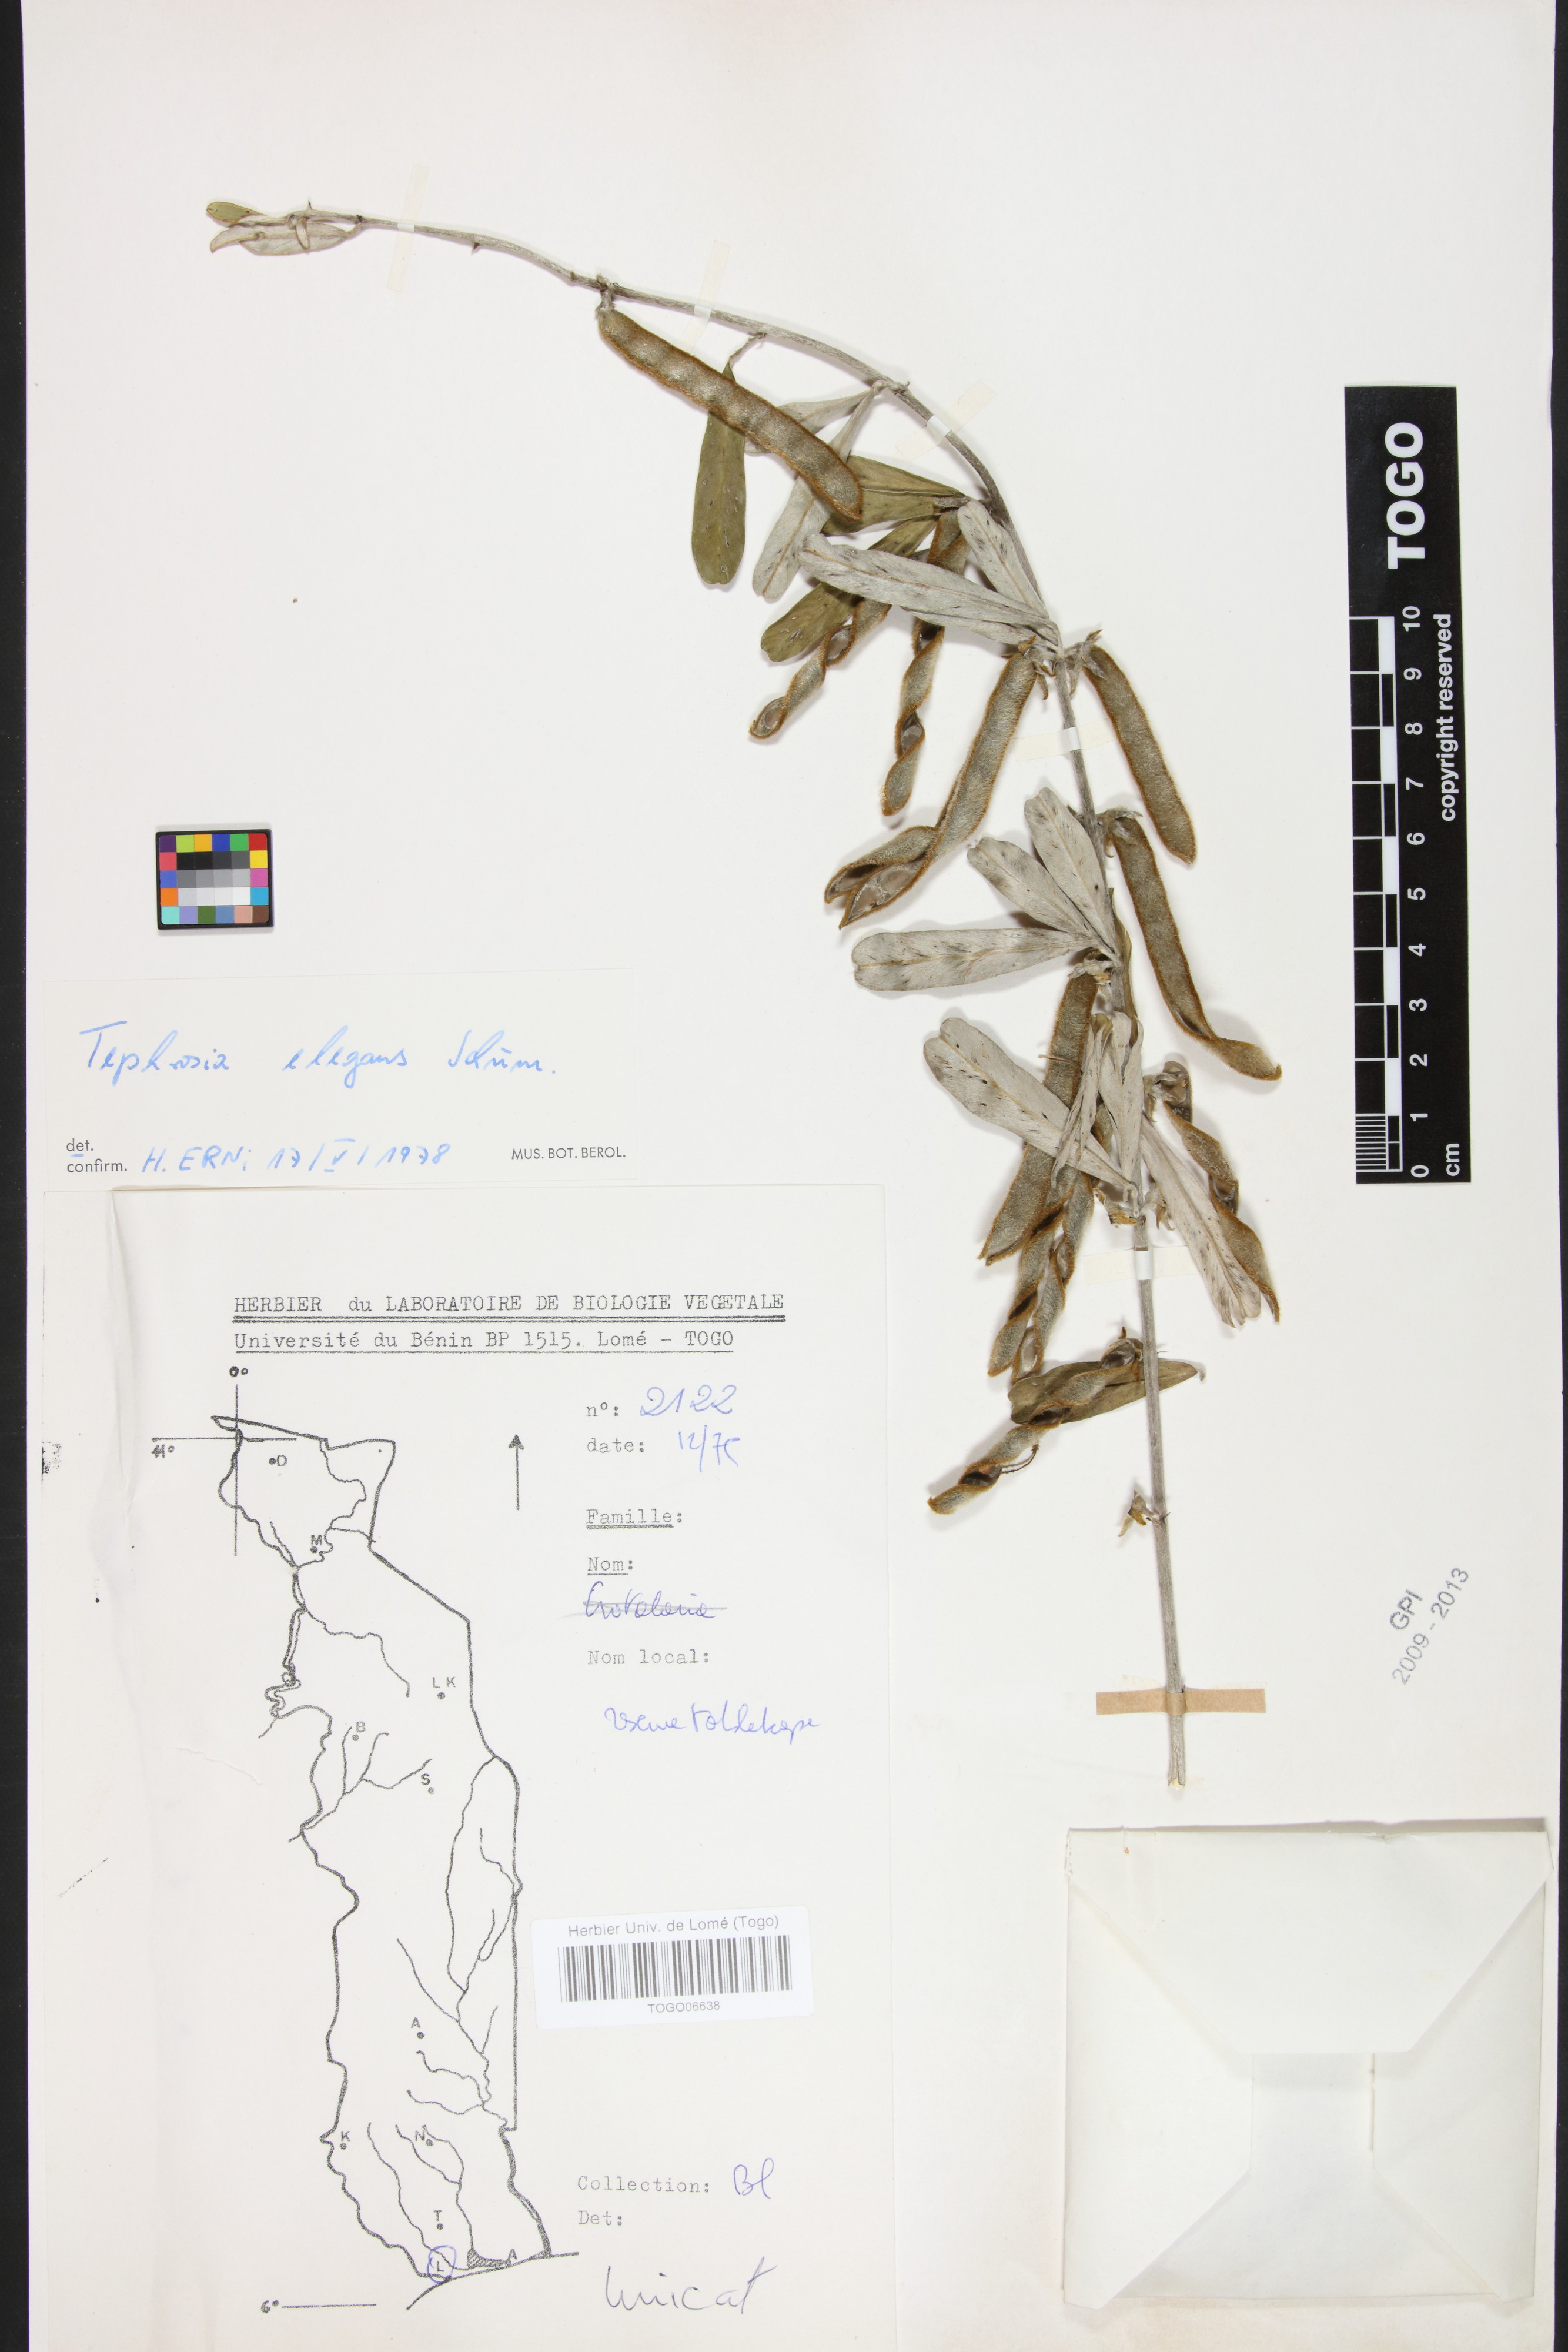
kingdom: Plantae
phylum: Tracheophyta
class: Magnoliopsida
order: Fabales
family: Fabaceae
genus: Tephrosia
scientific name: Tephrosia elegans
